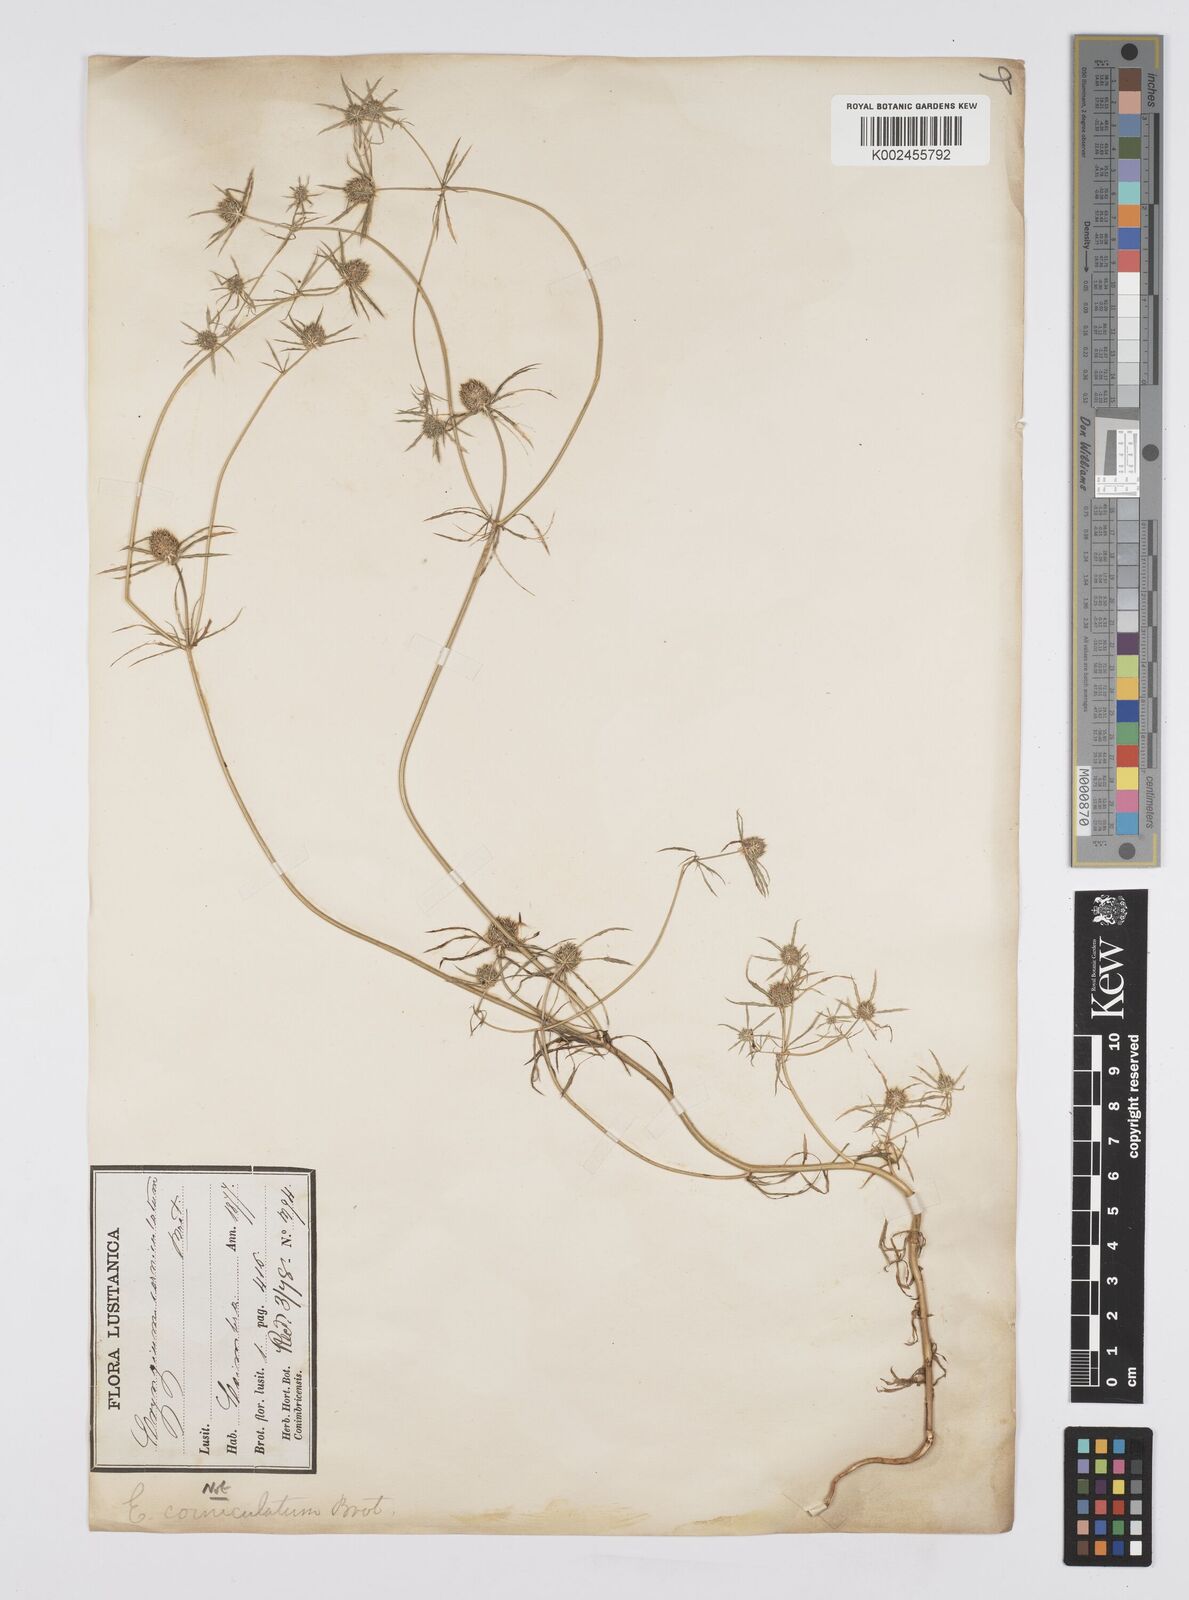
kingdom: Plantae
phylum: Tracheophyta
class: Magnoliopsida
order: Apiales
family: Apiaceae
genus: Eryngium
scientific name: Eryngium
